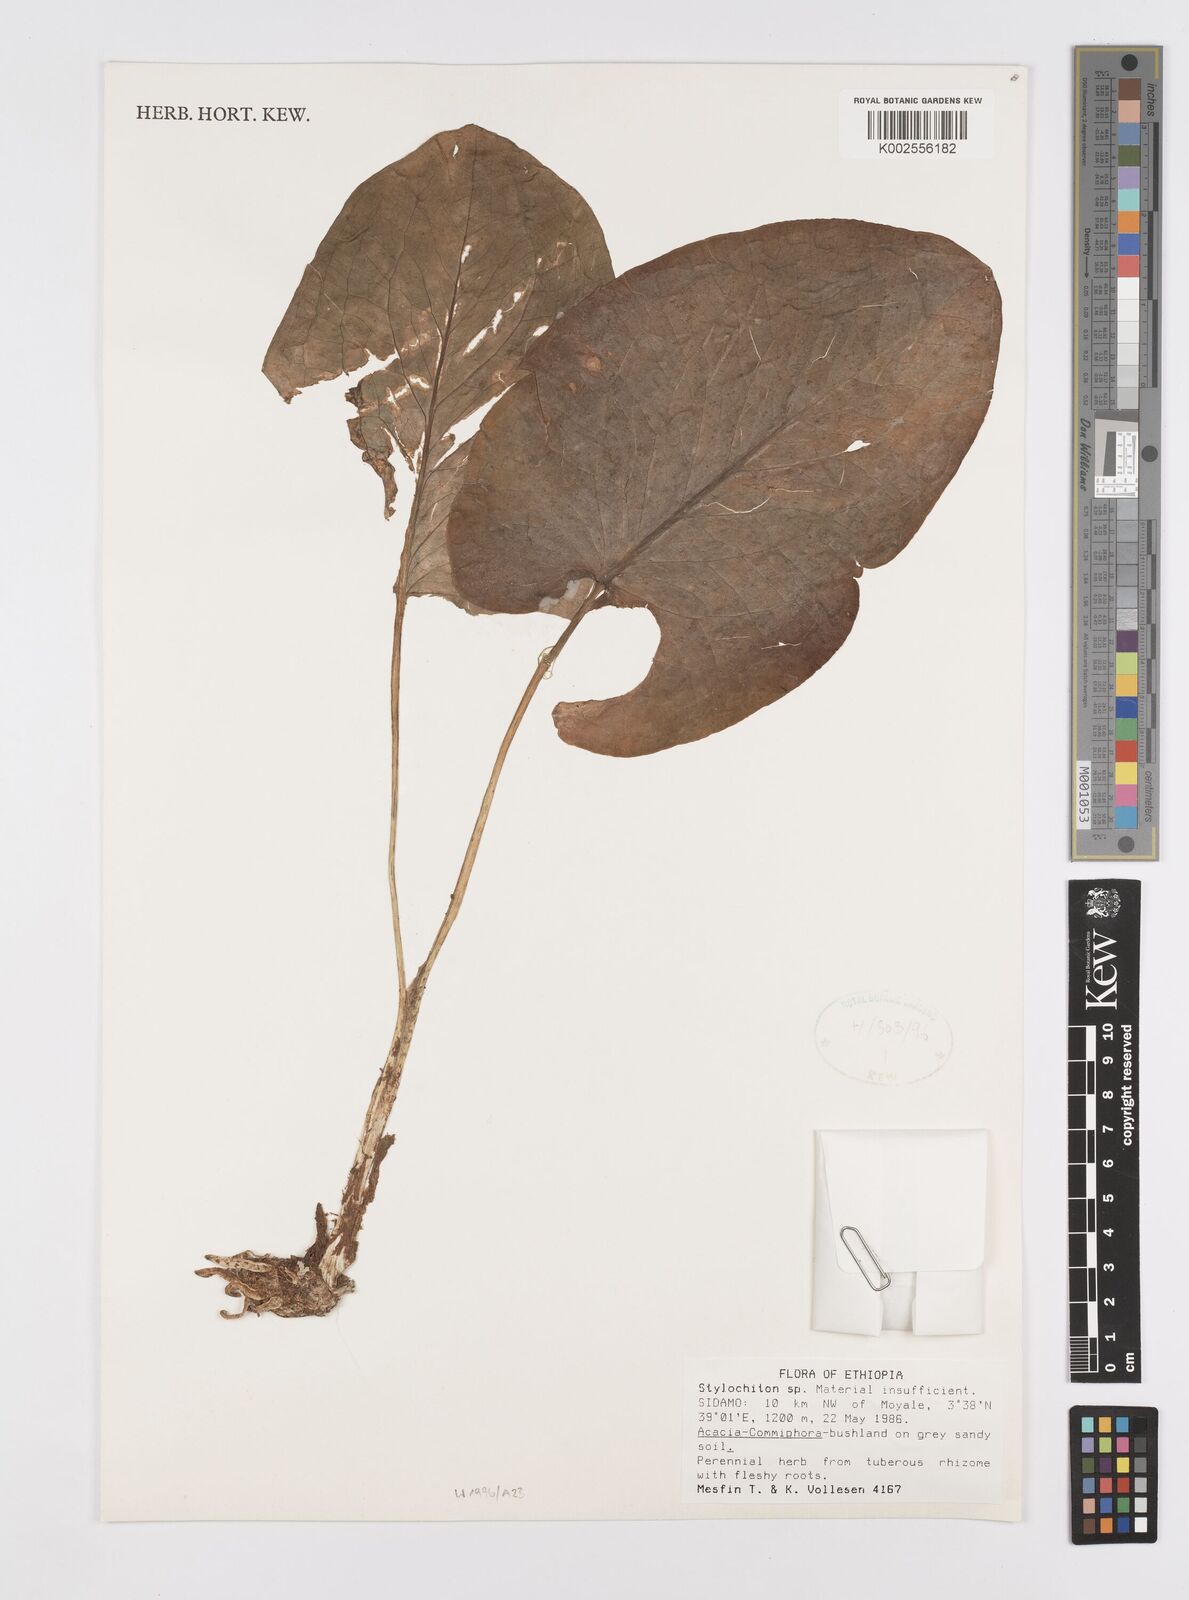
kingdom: Plantae
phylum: Tracheophyta
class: Liliopsida
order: Alismatales
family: Araceae
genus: Stylochaeton
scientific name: Stylochaeton
